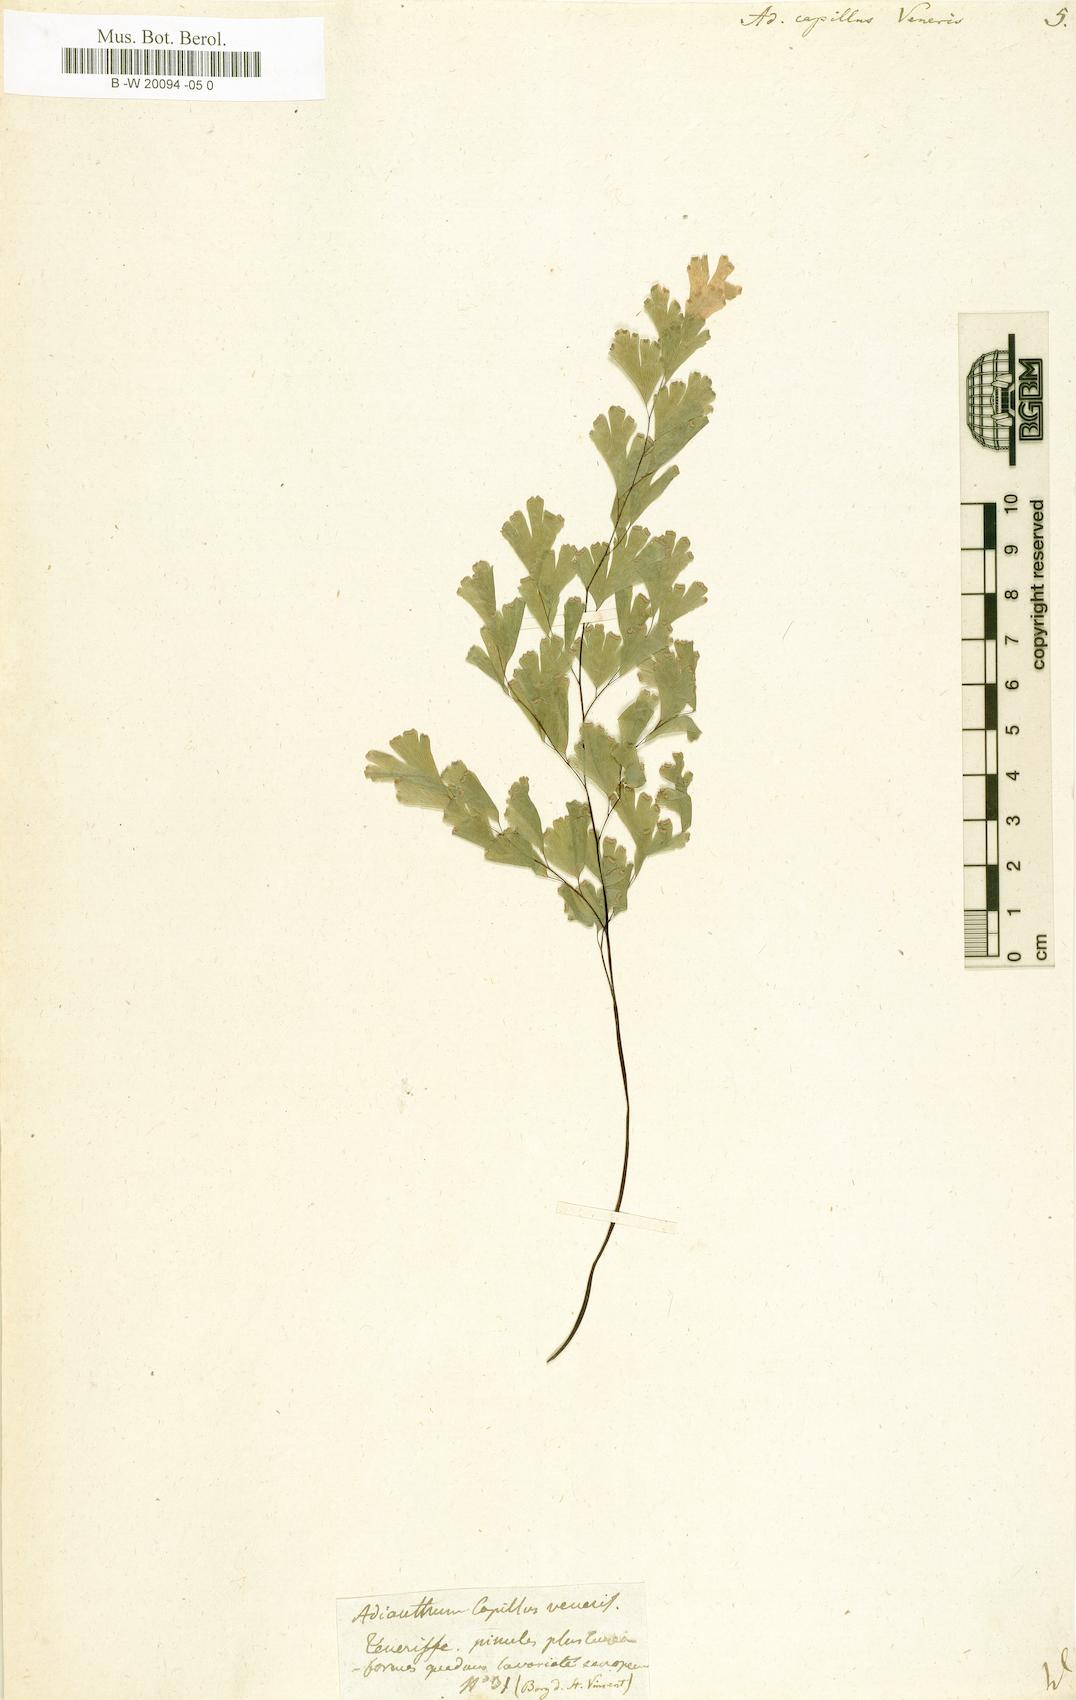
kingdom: Plantae
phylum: Tracheophyta
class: Polypodiopsida
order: Polypodiales
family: Pteridaceae
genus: Adiantum
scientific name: Adiantum capillus-veneris
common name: Maidenhair fern
